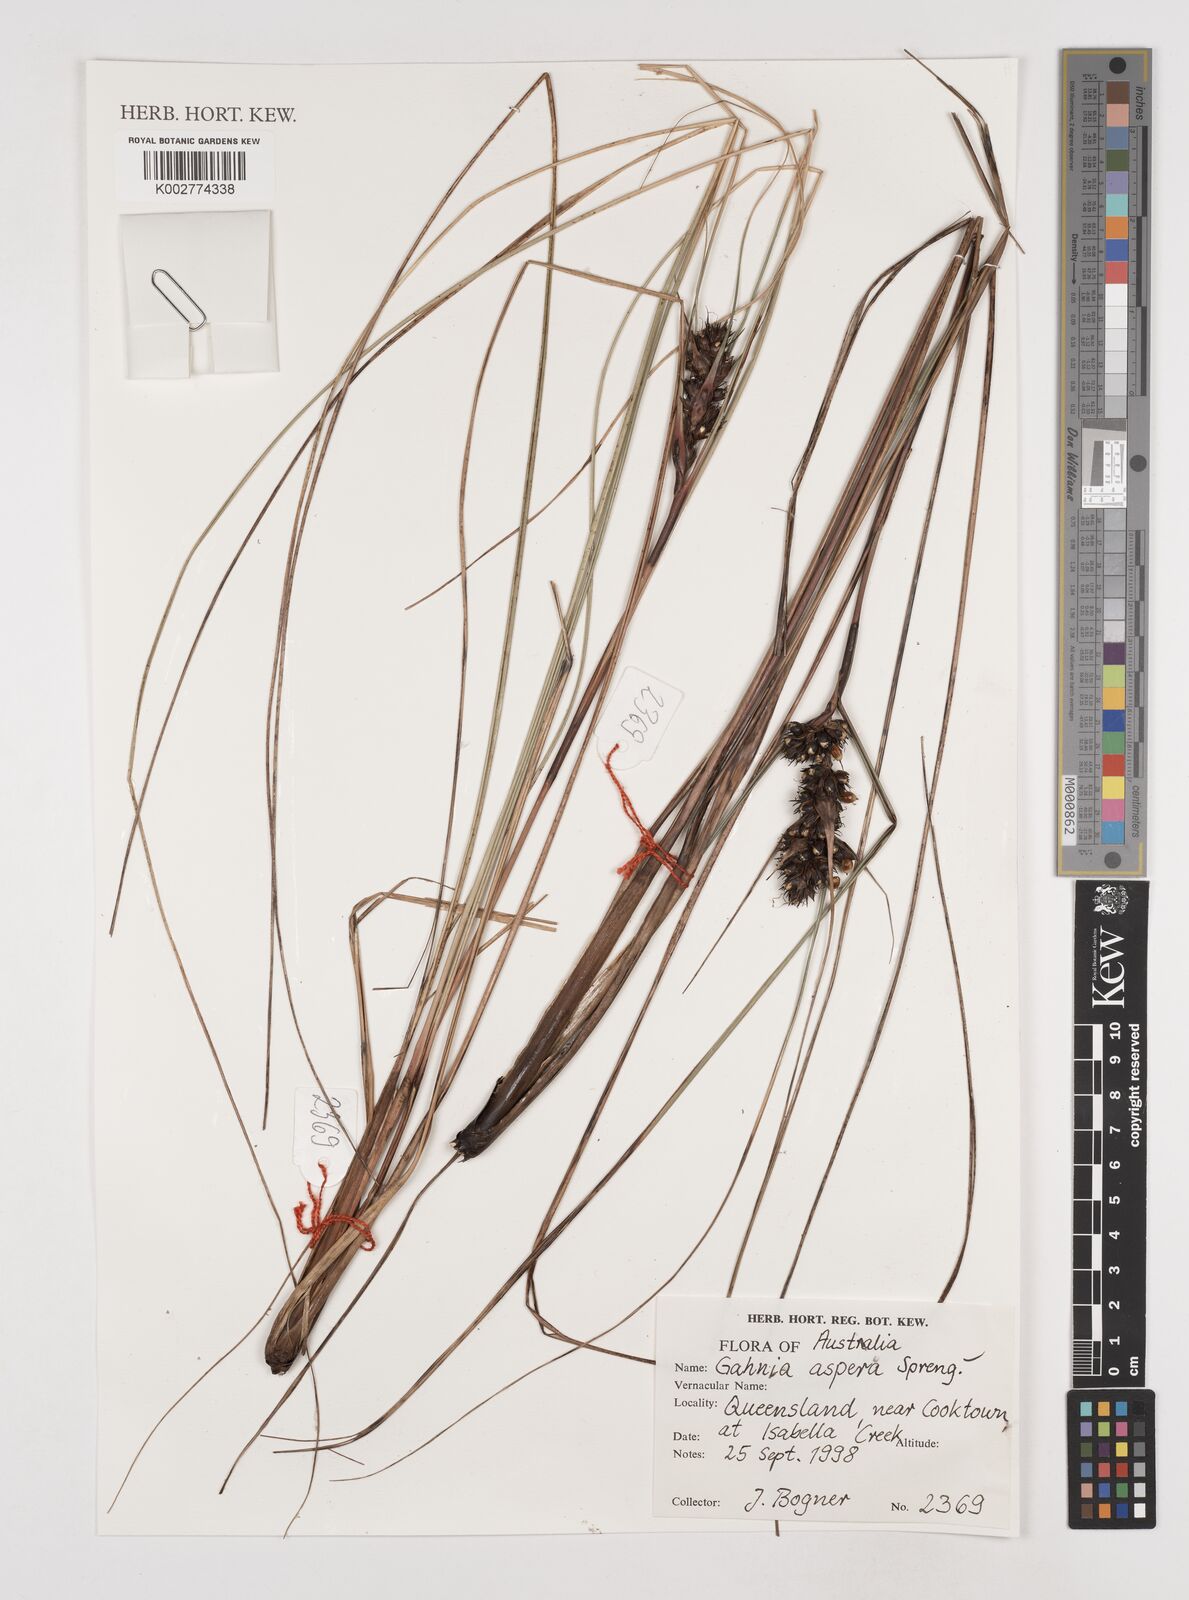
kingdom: Plantae
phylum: Tracheophyta
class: Liliopsida
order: Poales
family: Cyperaceae
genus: Gahnia
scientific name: Gahnia aspera
